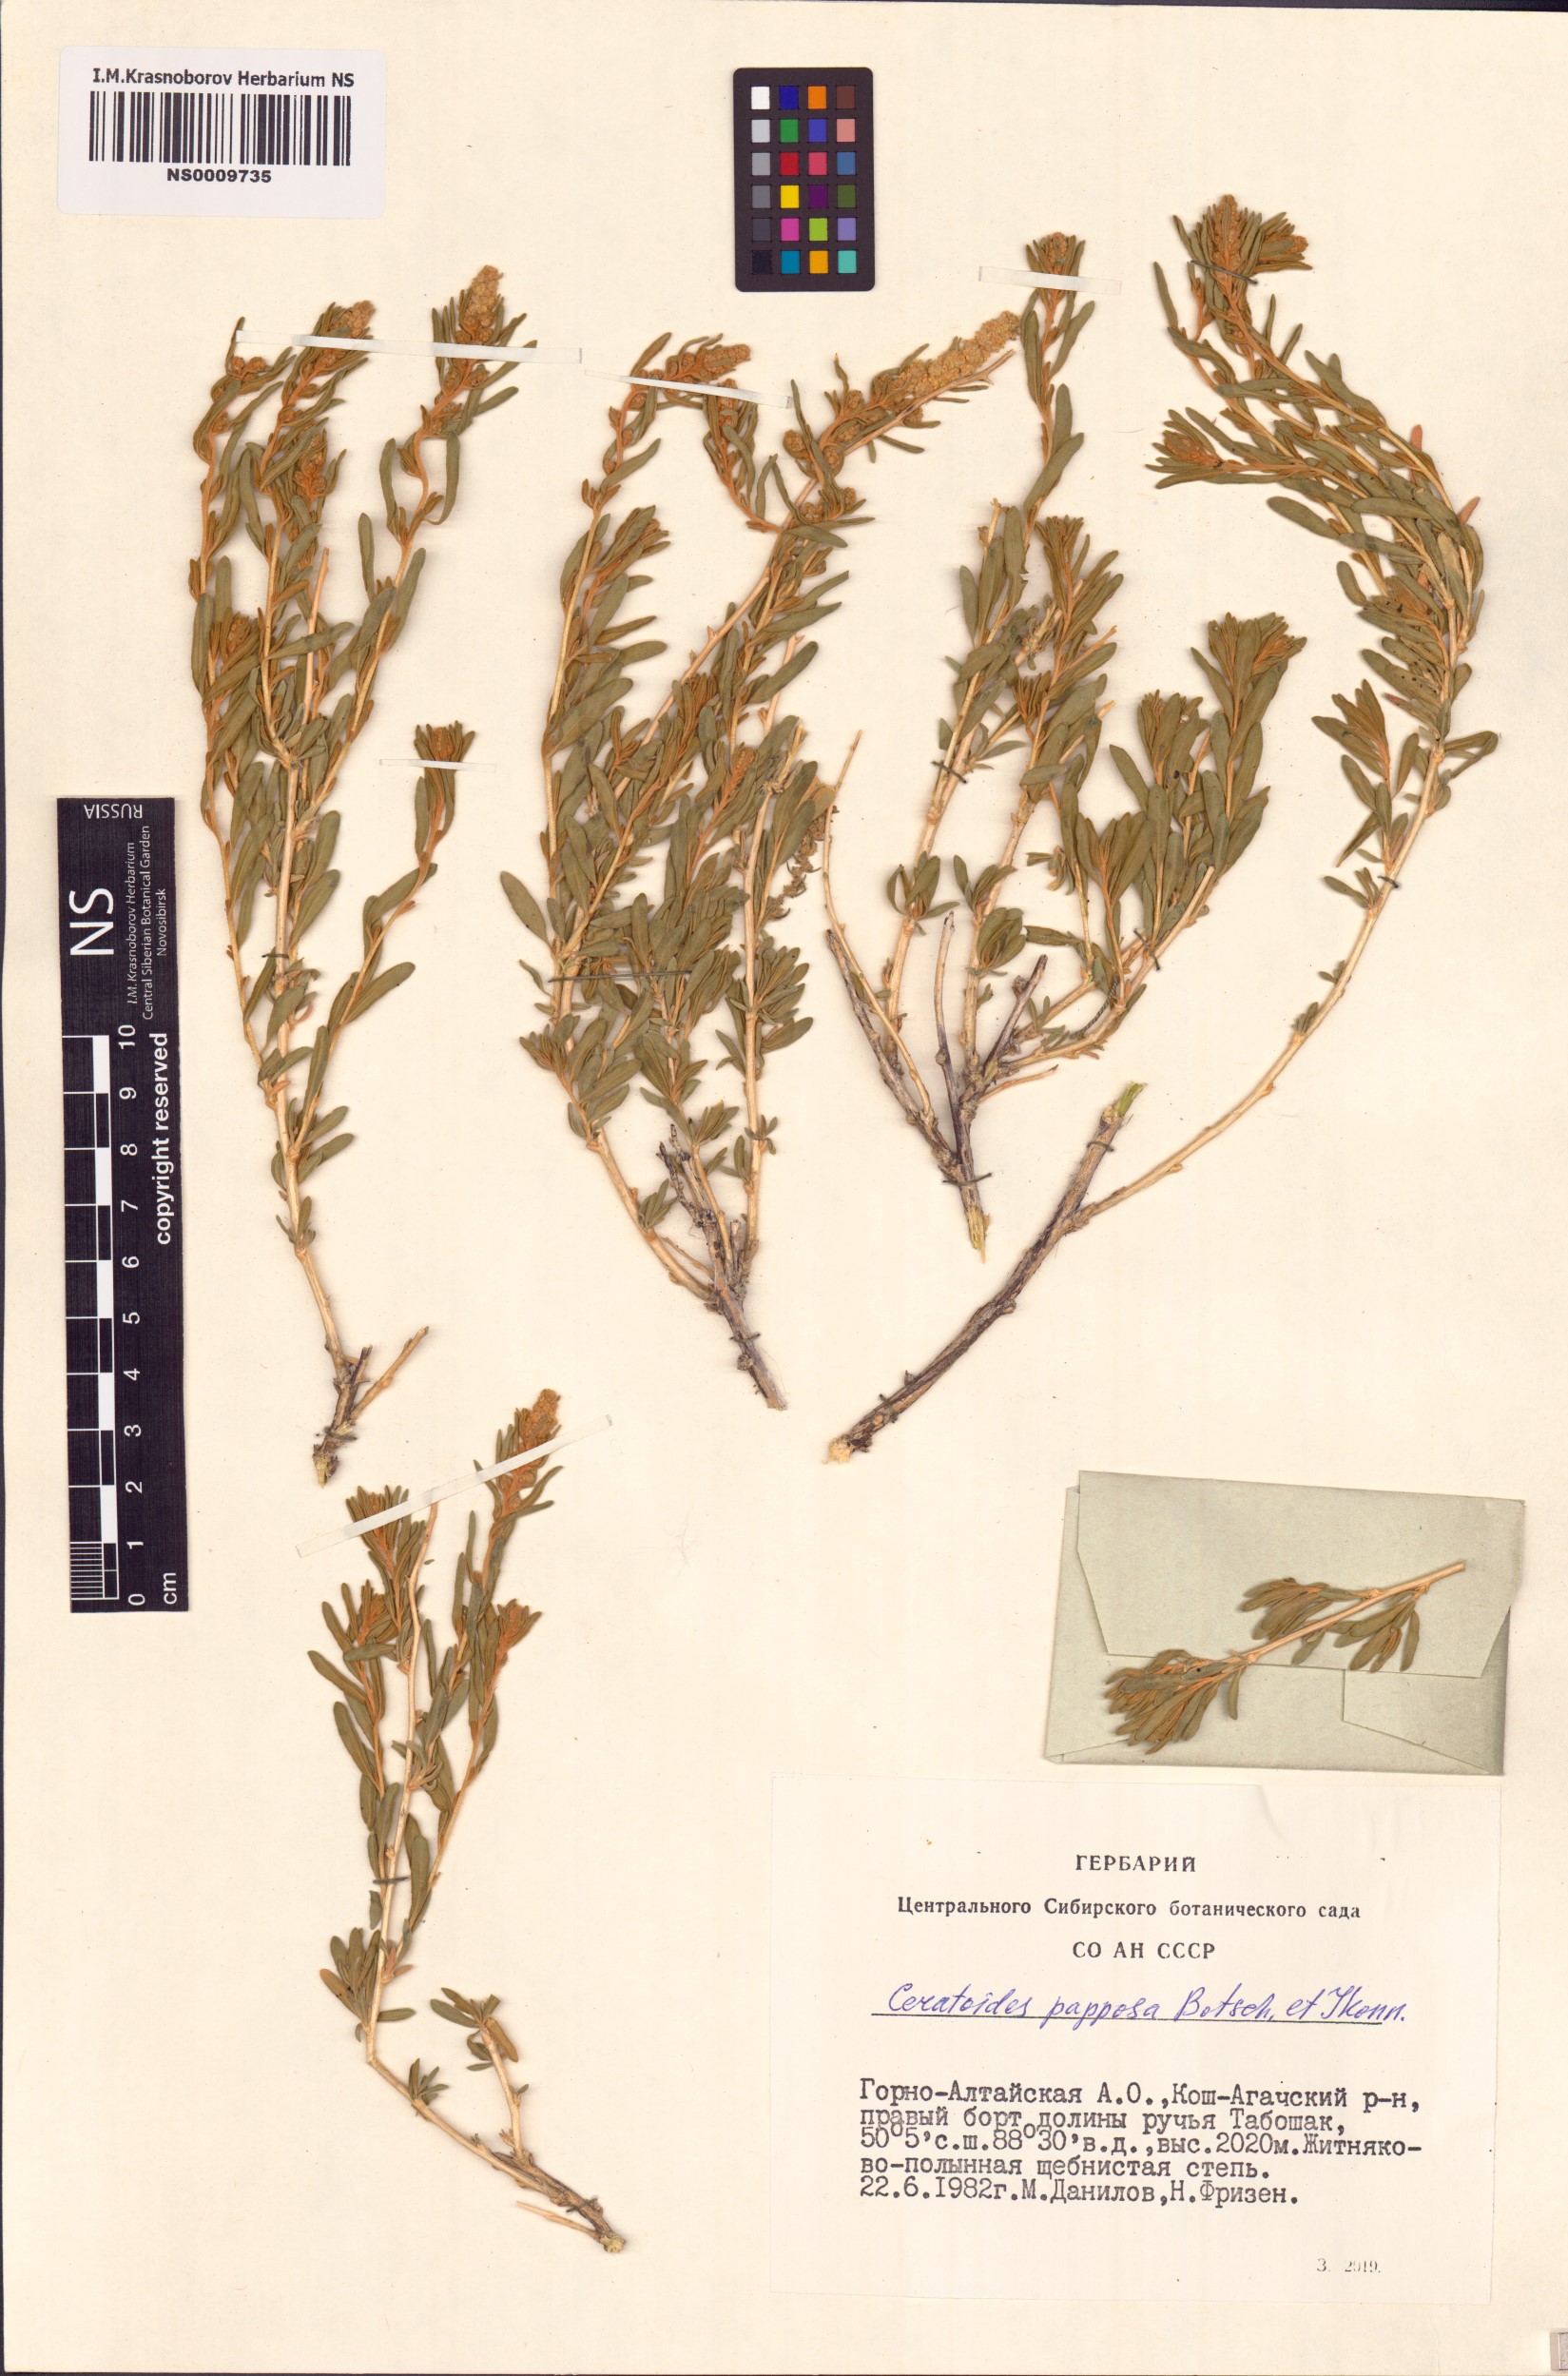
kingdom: Plantae
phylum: Tracheophyta
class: Magnoliopsida
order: Caryophyllales
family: Amaranthaceae
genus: Krascheninnikovia
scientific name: Krascheninnikovia ceratoides
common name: Pamirian winterfat
